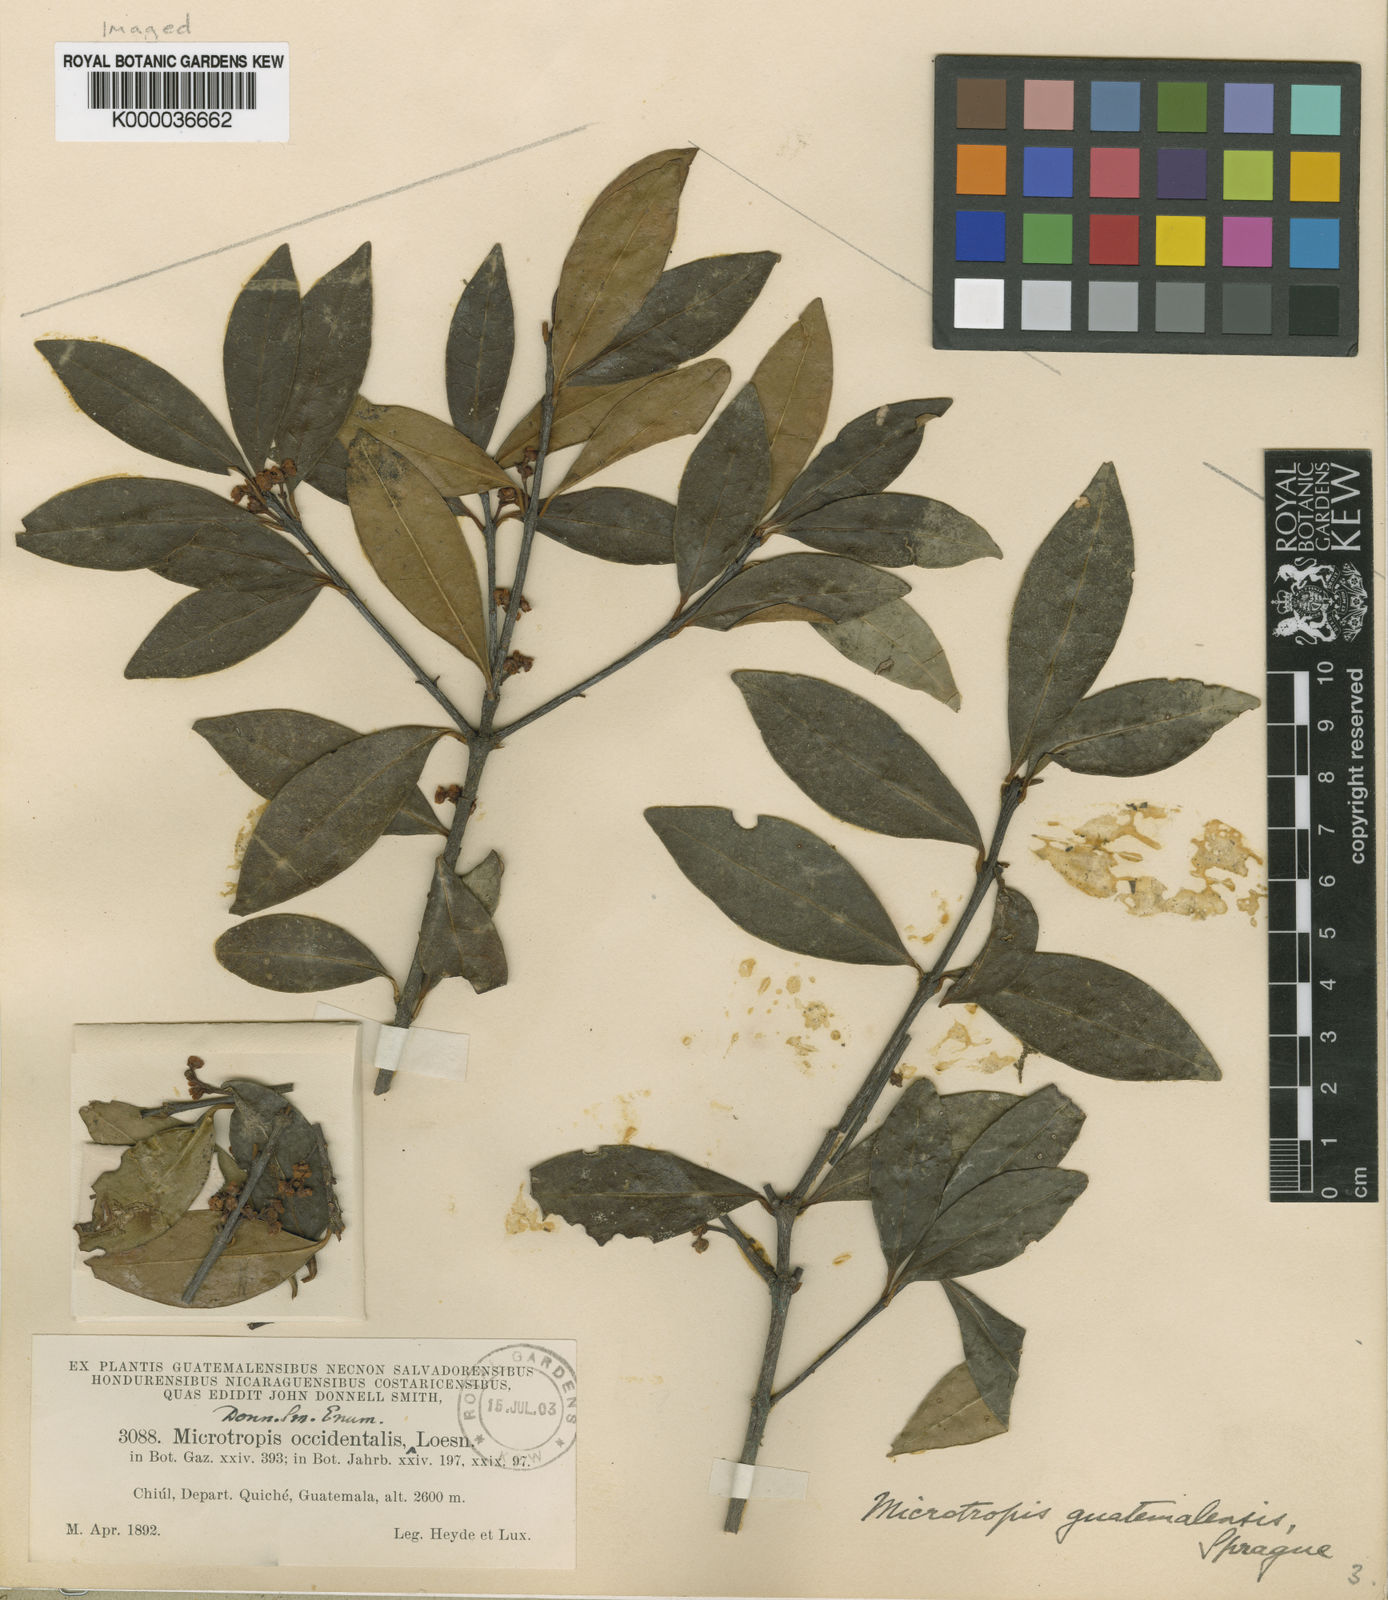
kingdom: Plantae
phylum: Tracheophyta
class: Magnoliopsida
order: Celastrales
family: Celastraceae
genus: Gyminda
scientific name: Gyminda tonduzii
